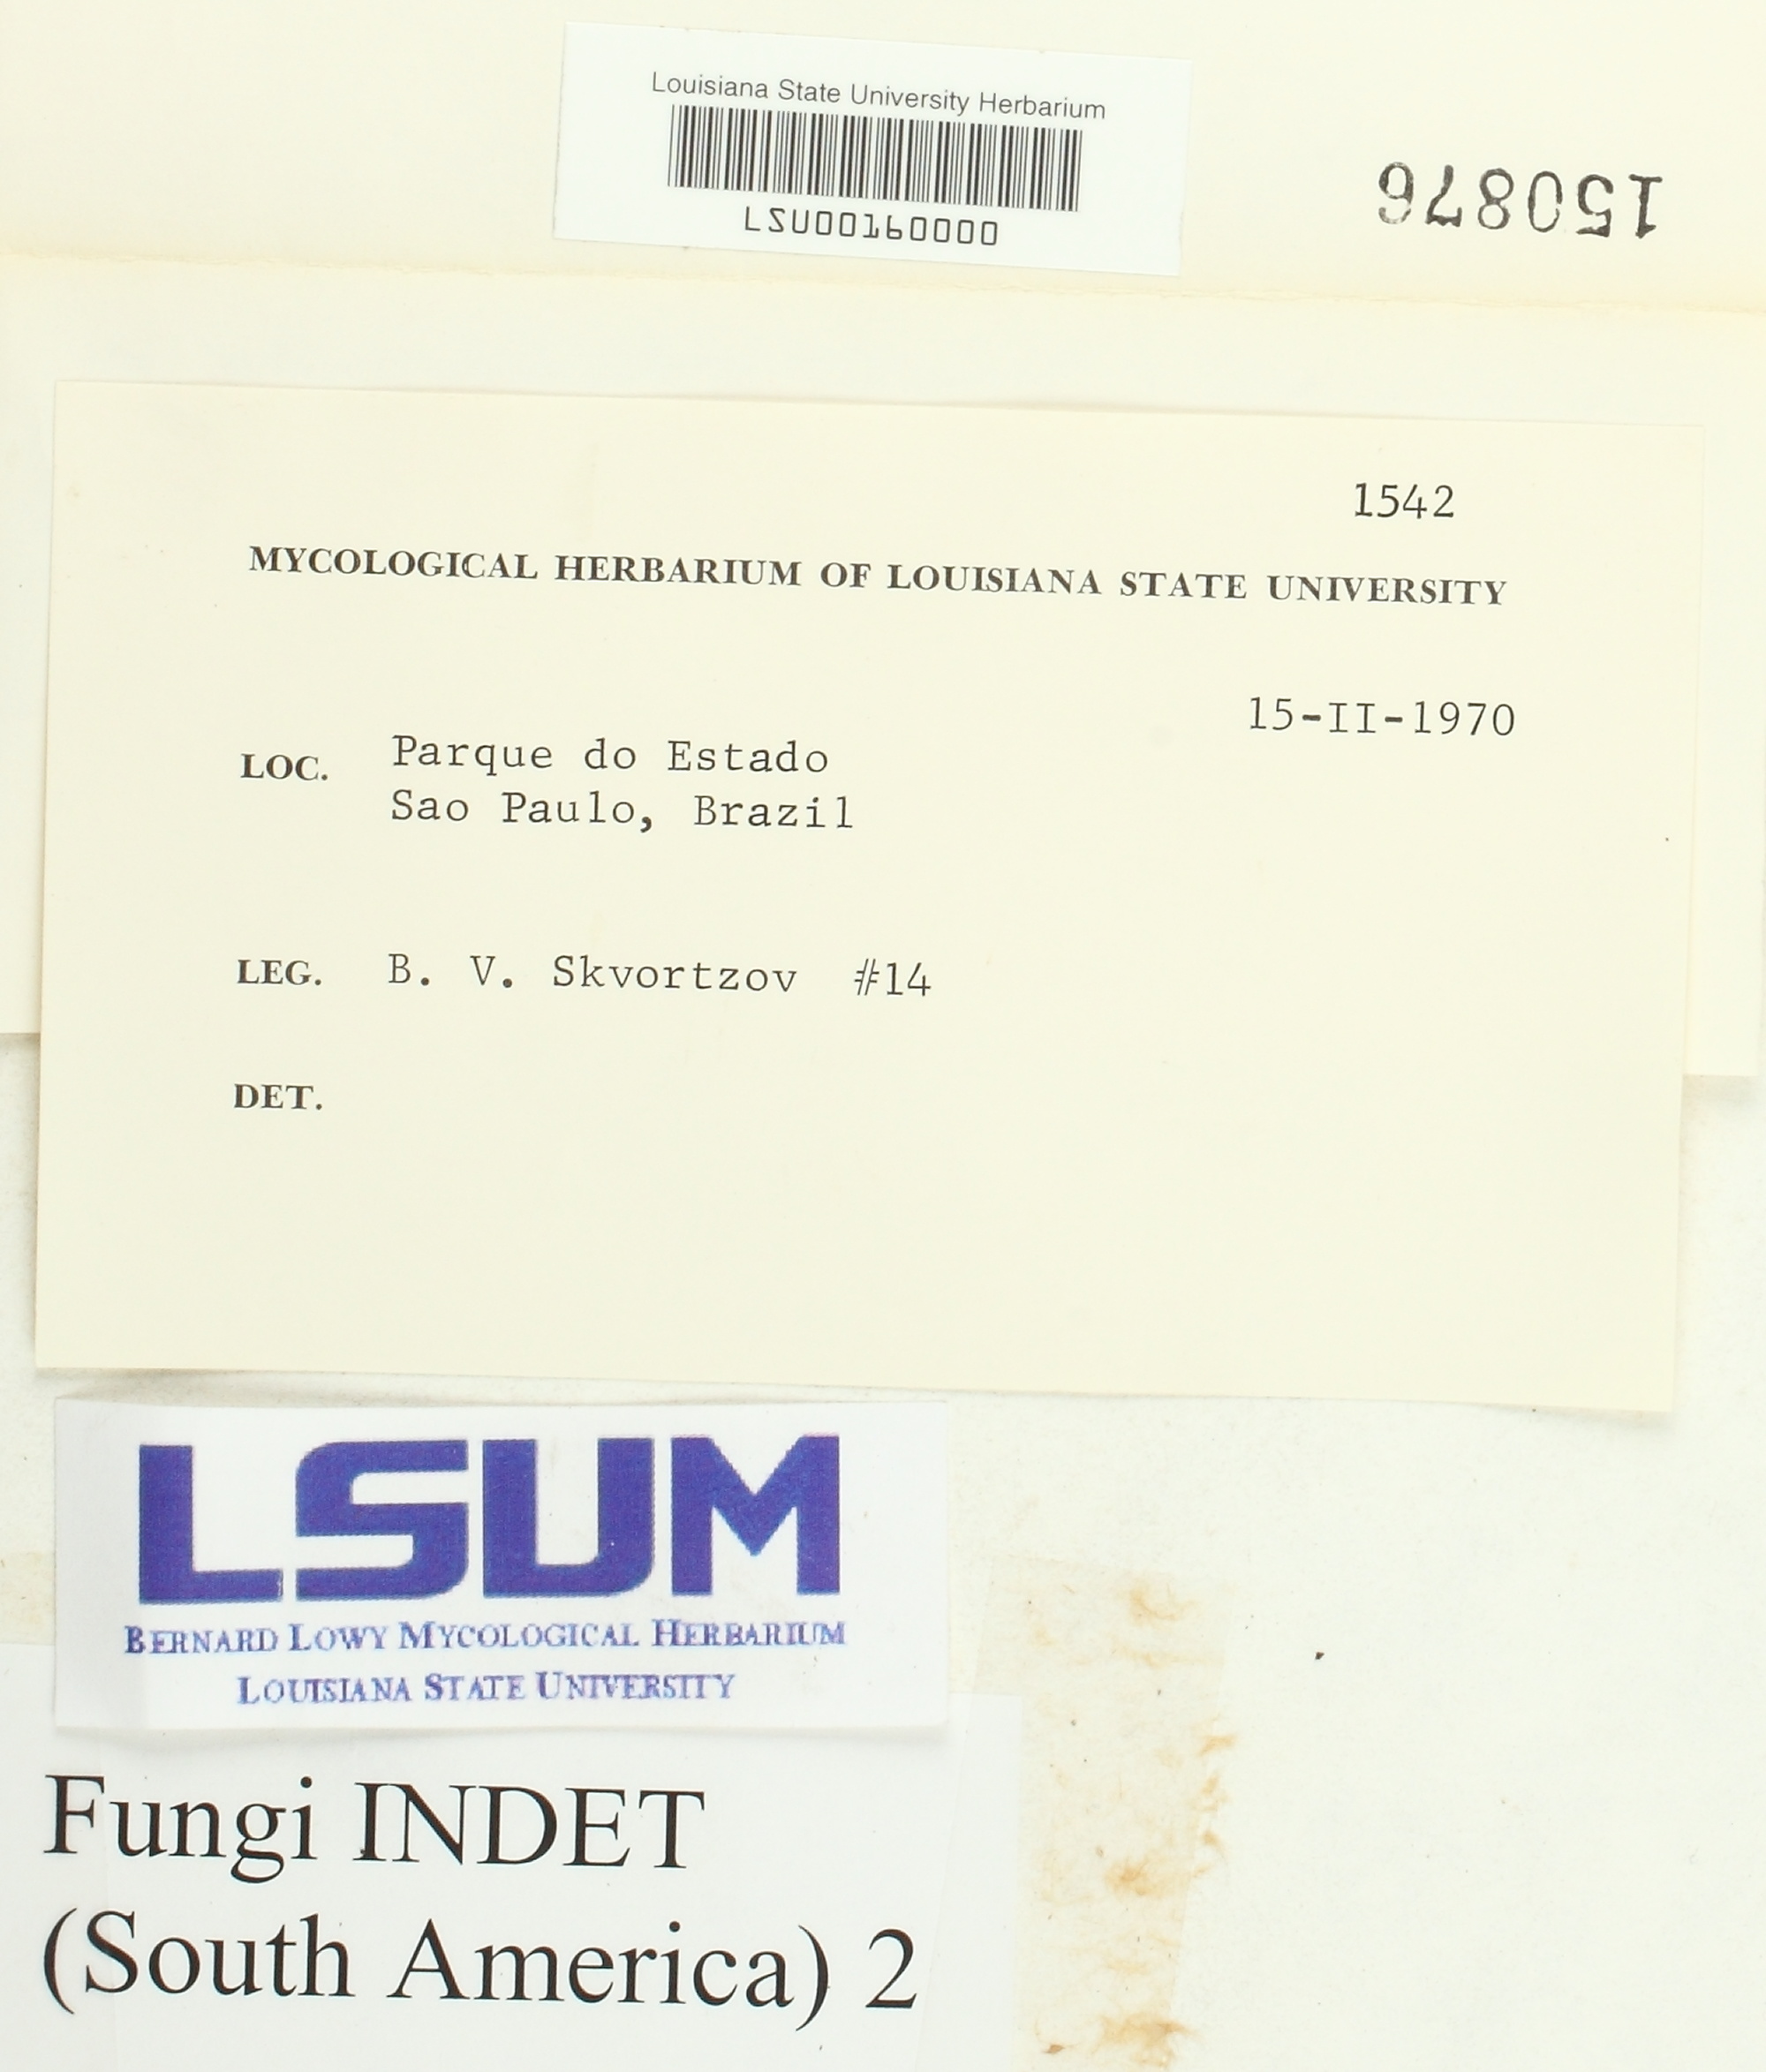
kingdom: Fungi
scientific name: Fungi
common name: Fungi
